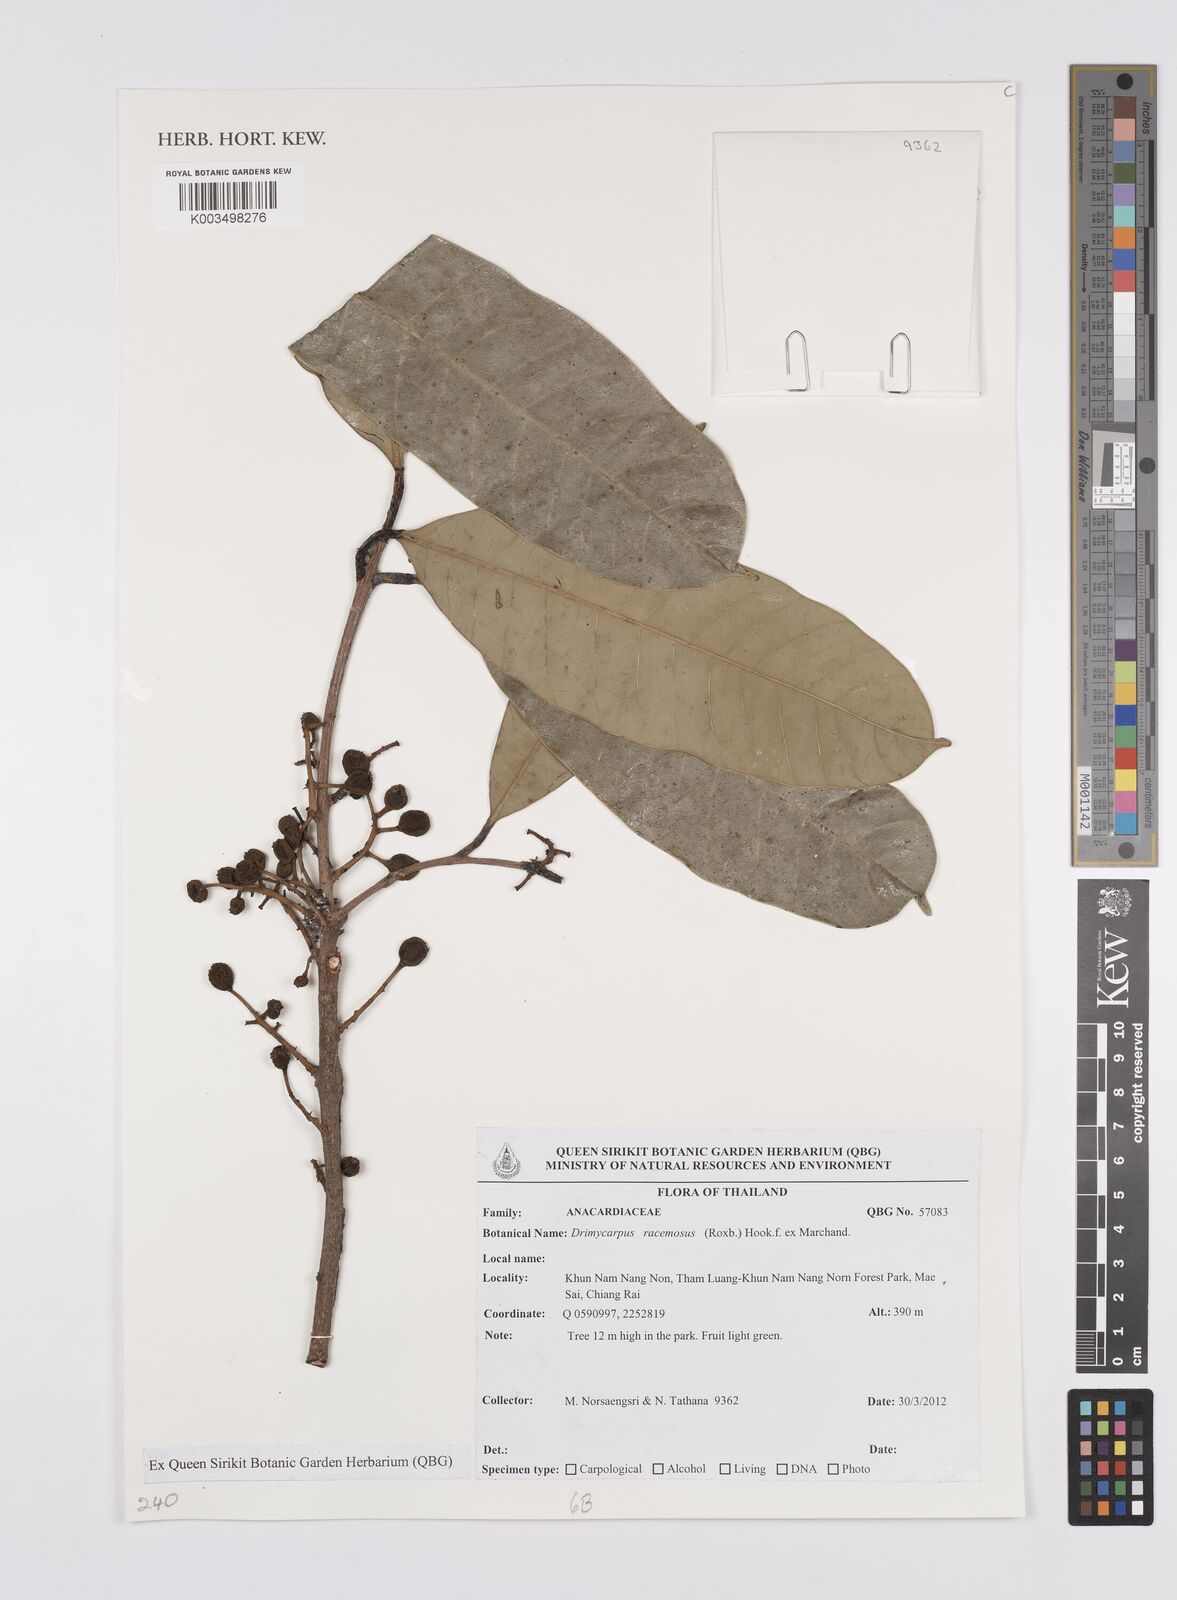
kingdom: Plantae
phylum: Tracheophyta
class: Magnoliopsida
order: Sapindales
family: Anacardiaceae
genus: Drimycarpus
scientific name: Drimycarpus racemosus
